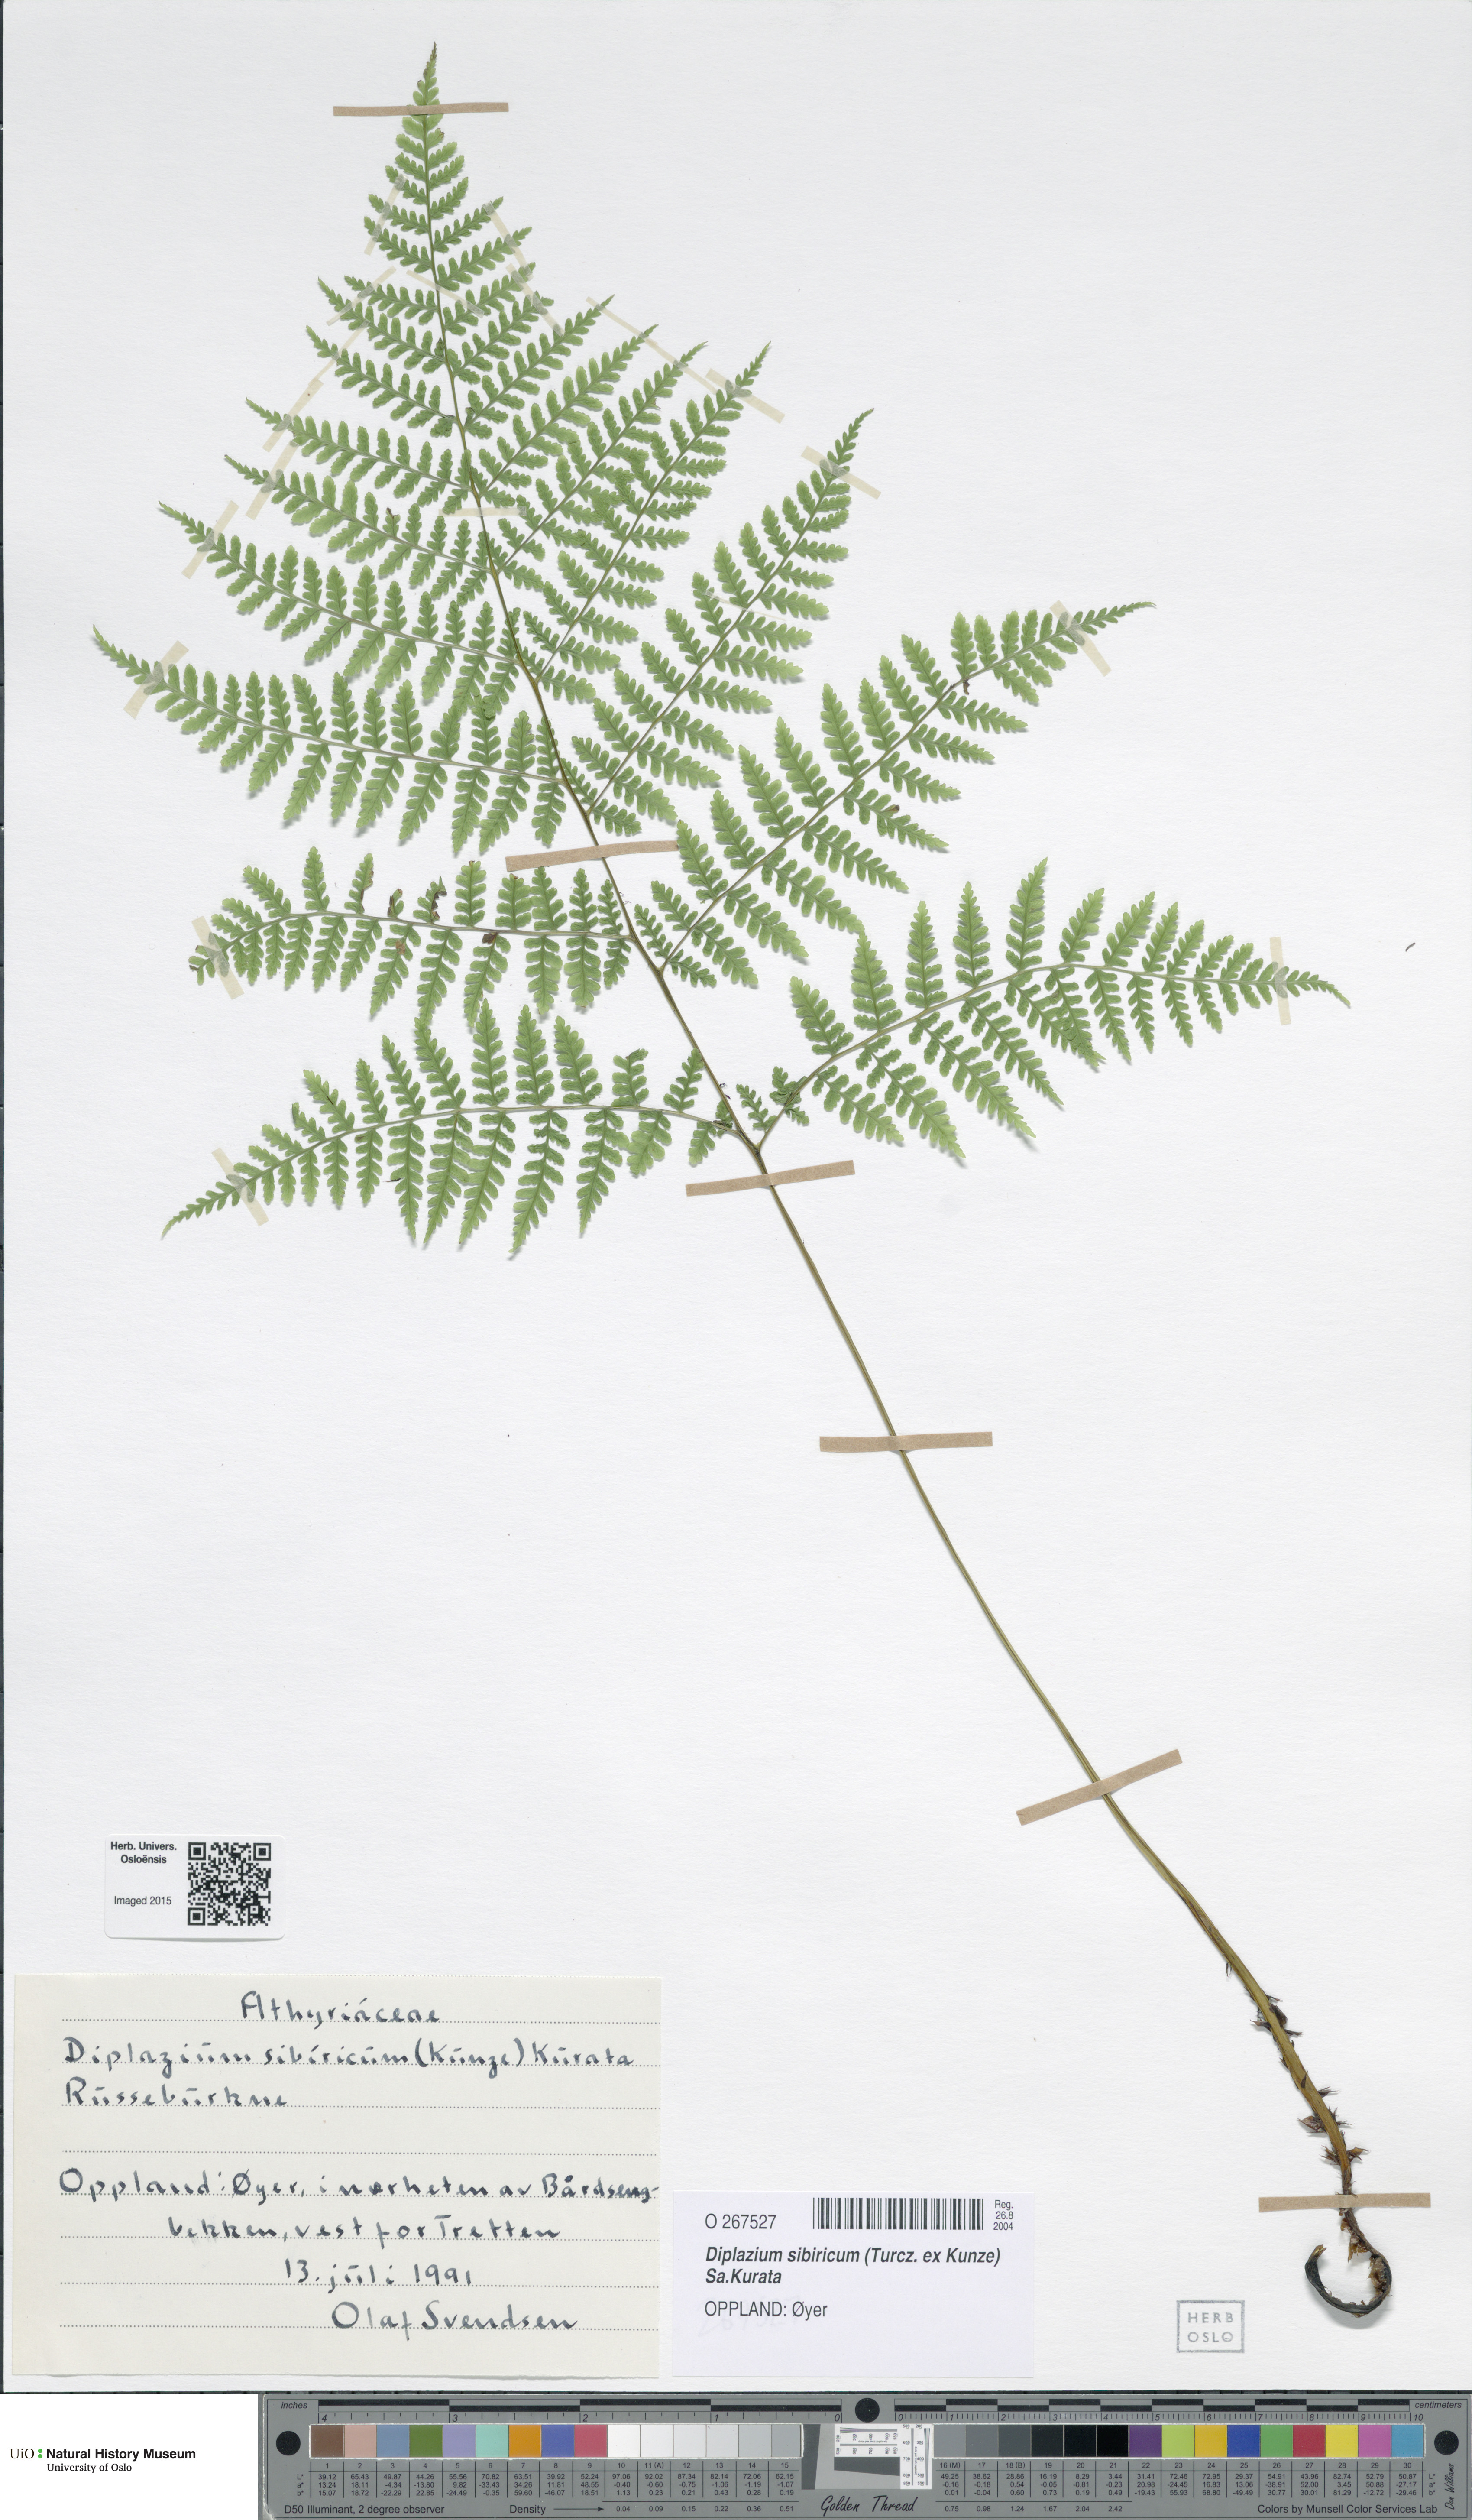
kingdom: Plantae
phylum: Tracheophyta
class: Polypodiopsida
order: Polypodiales
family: Athyriaceae
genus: Diplazium
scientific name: Diplazium sibiricum
